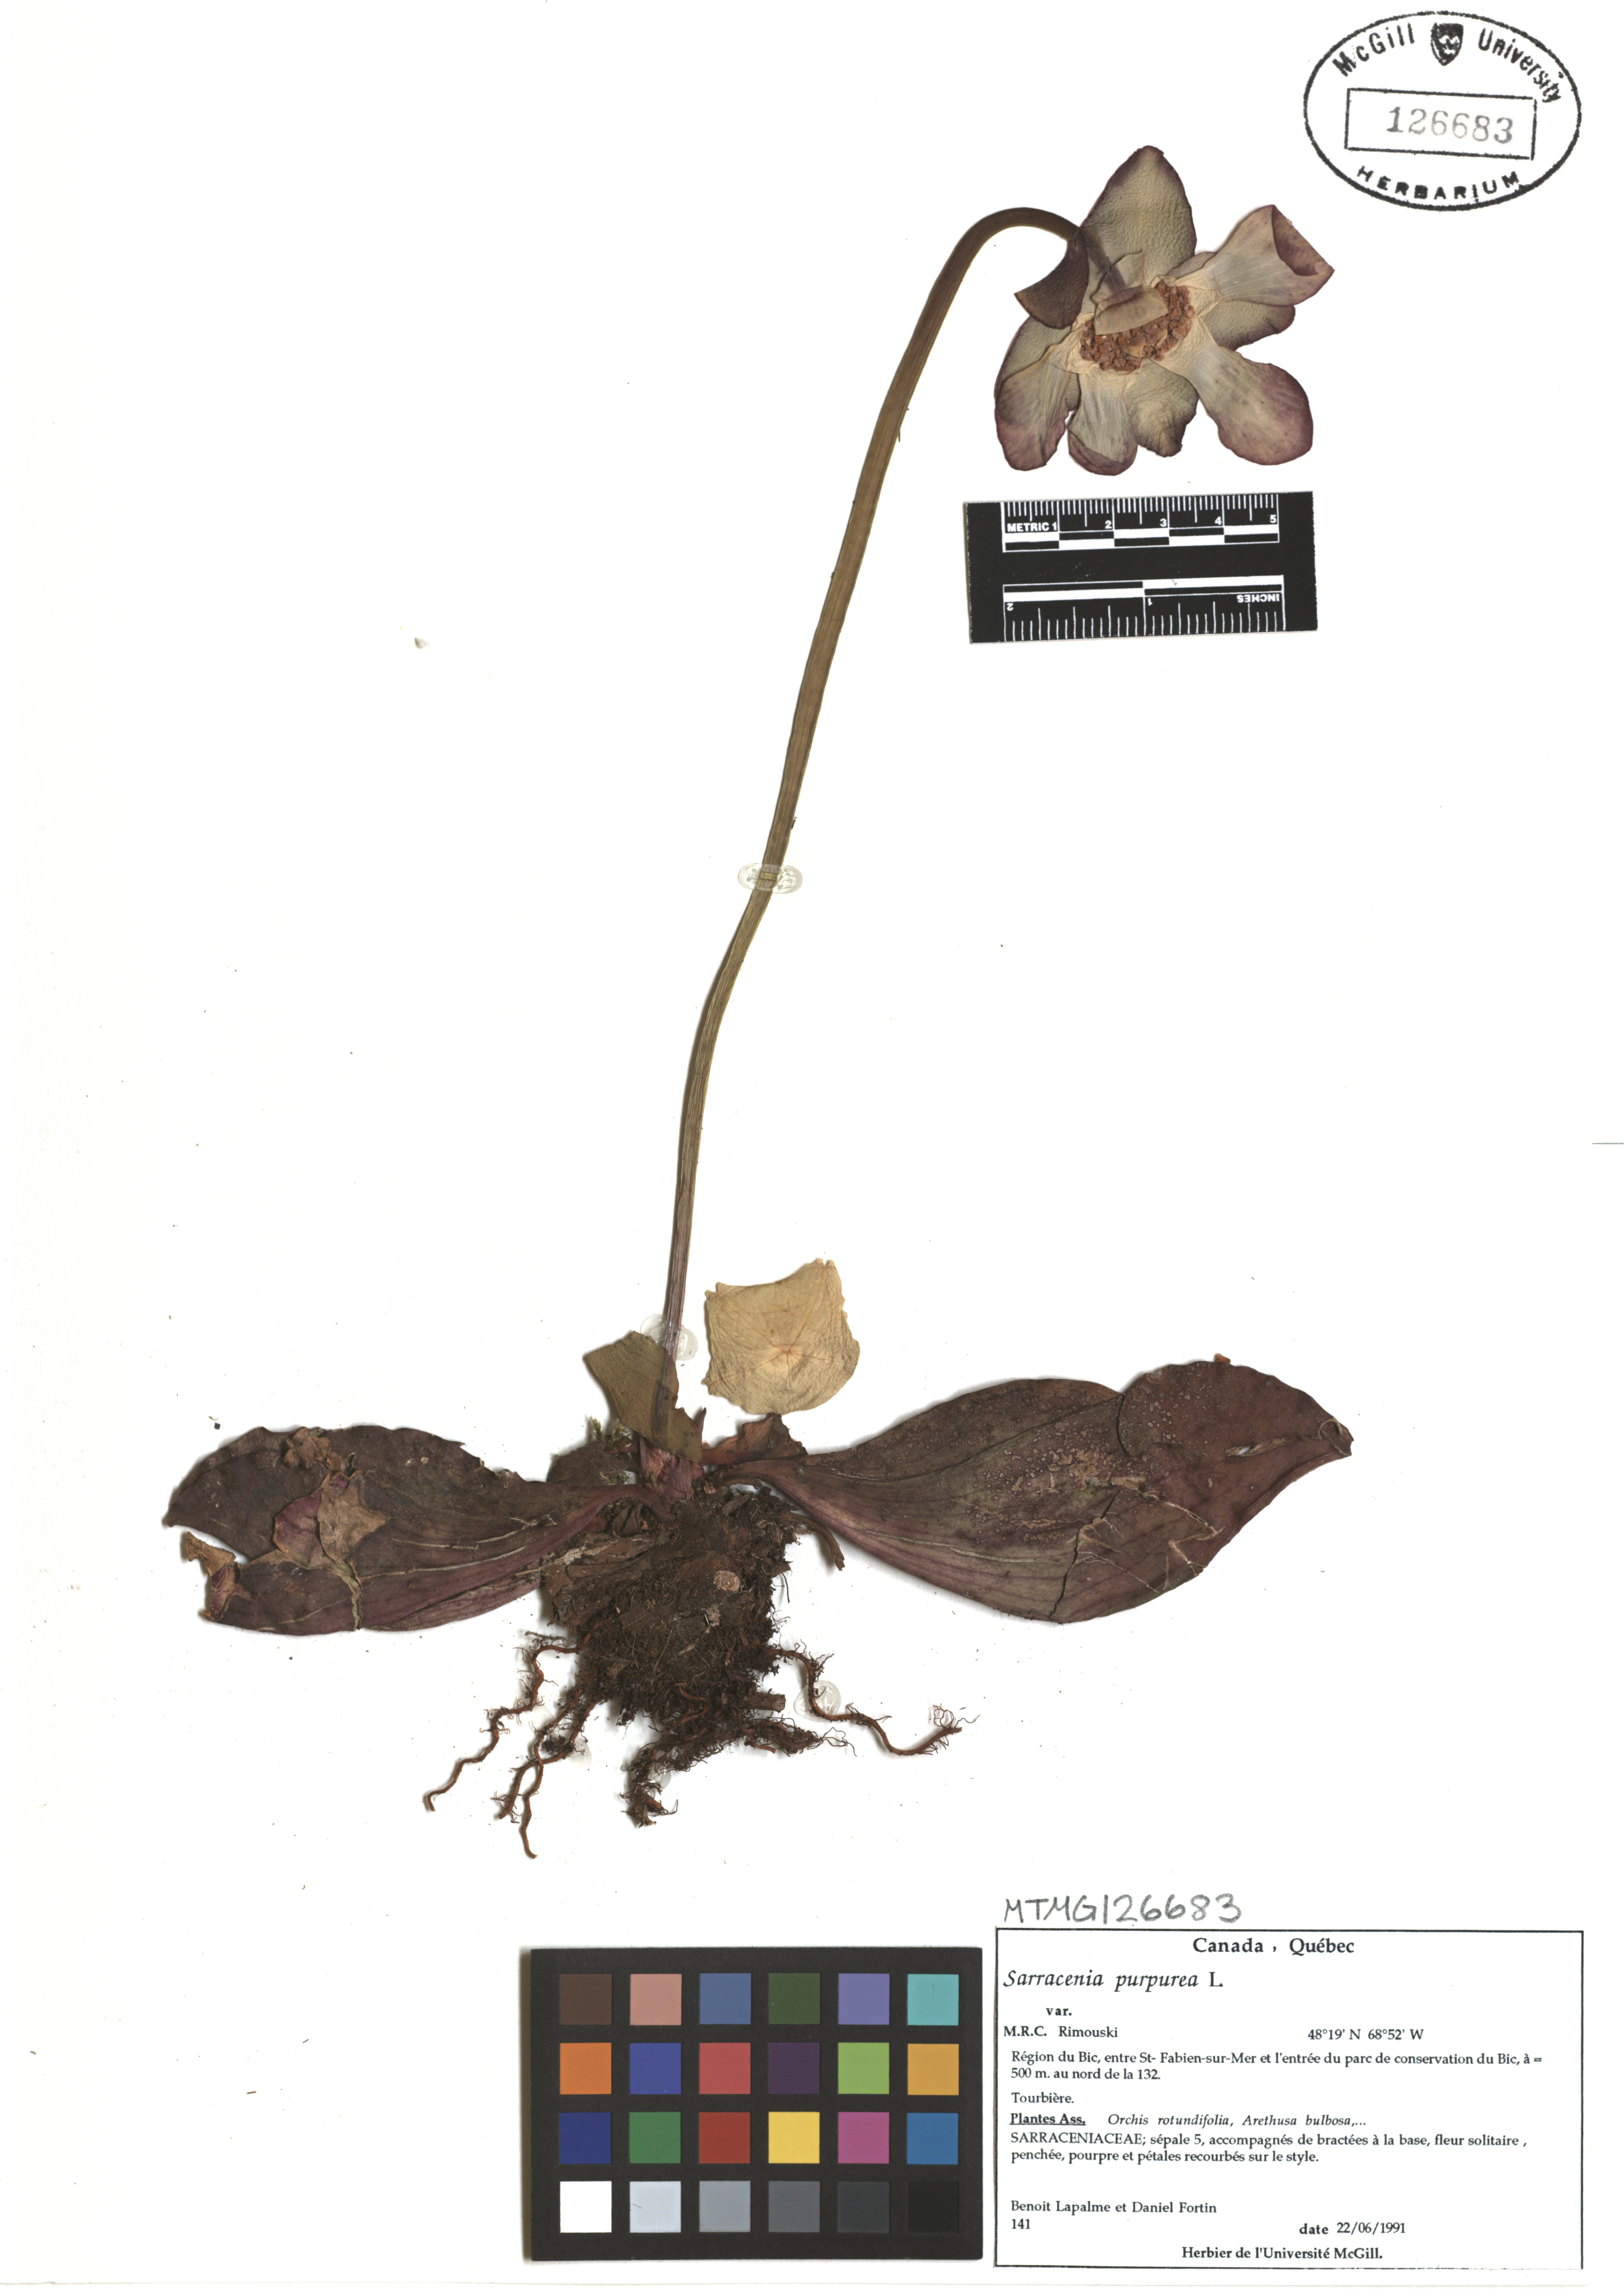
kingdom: Plantae
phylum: Tracheophyta
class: Magnoliopsida
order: Ericales
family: Sarraceniaceae
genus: Sarracenia
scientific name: Sarracenia purpurea
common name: Pitcherplant
